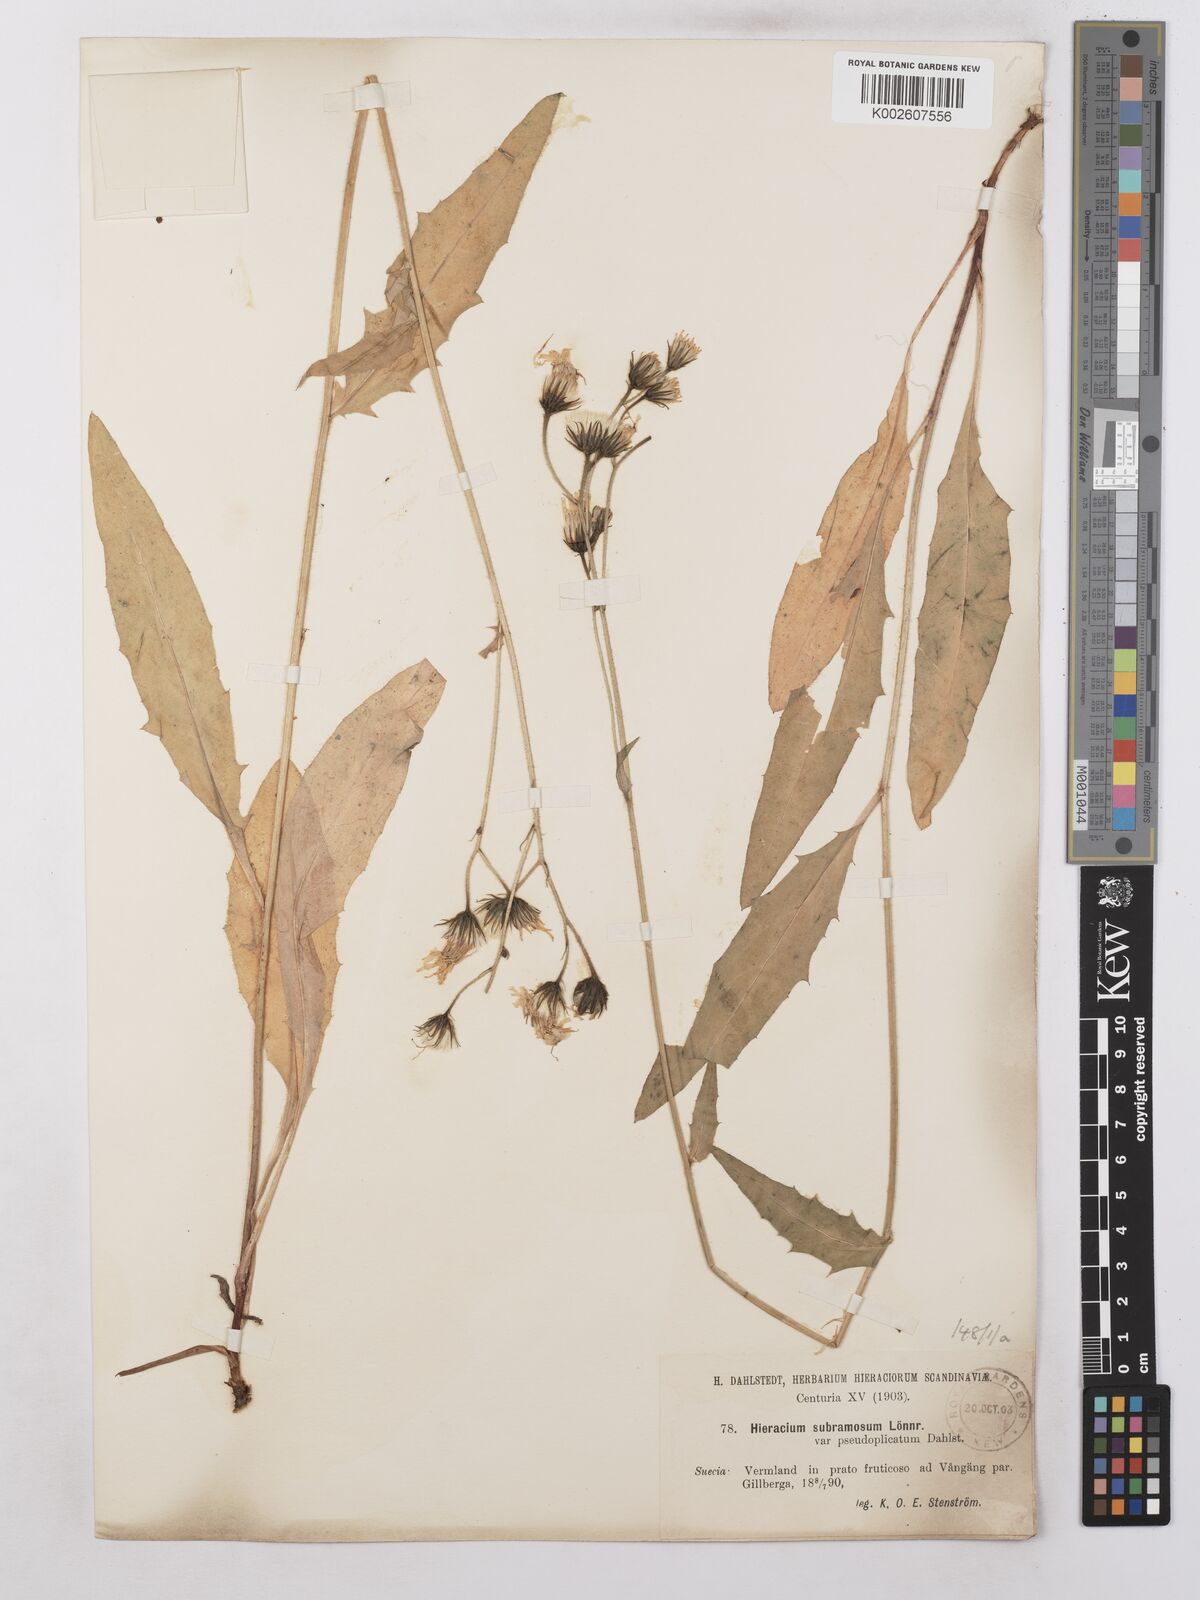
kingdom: Plantae
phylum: Tracheophyta
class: Magnoliopsida
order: Asterales
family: Asteraceae
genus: Hieracium
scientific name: Hieracium subramosum
